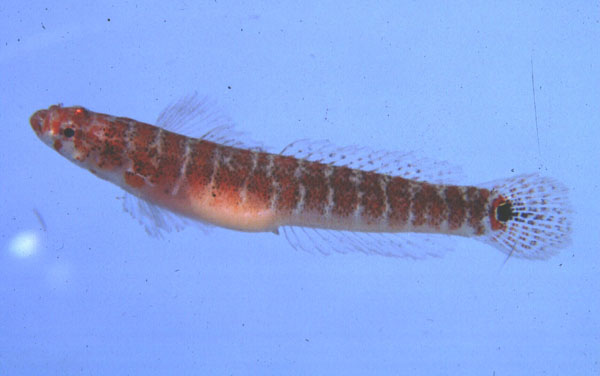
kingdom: Animalia
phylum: Chordata
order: Perciformes
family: Xenisthmidae
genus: Xenisthmus
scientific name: Xenisthmus polyzonatus
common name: Barred wriggler
